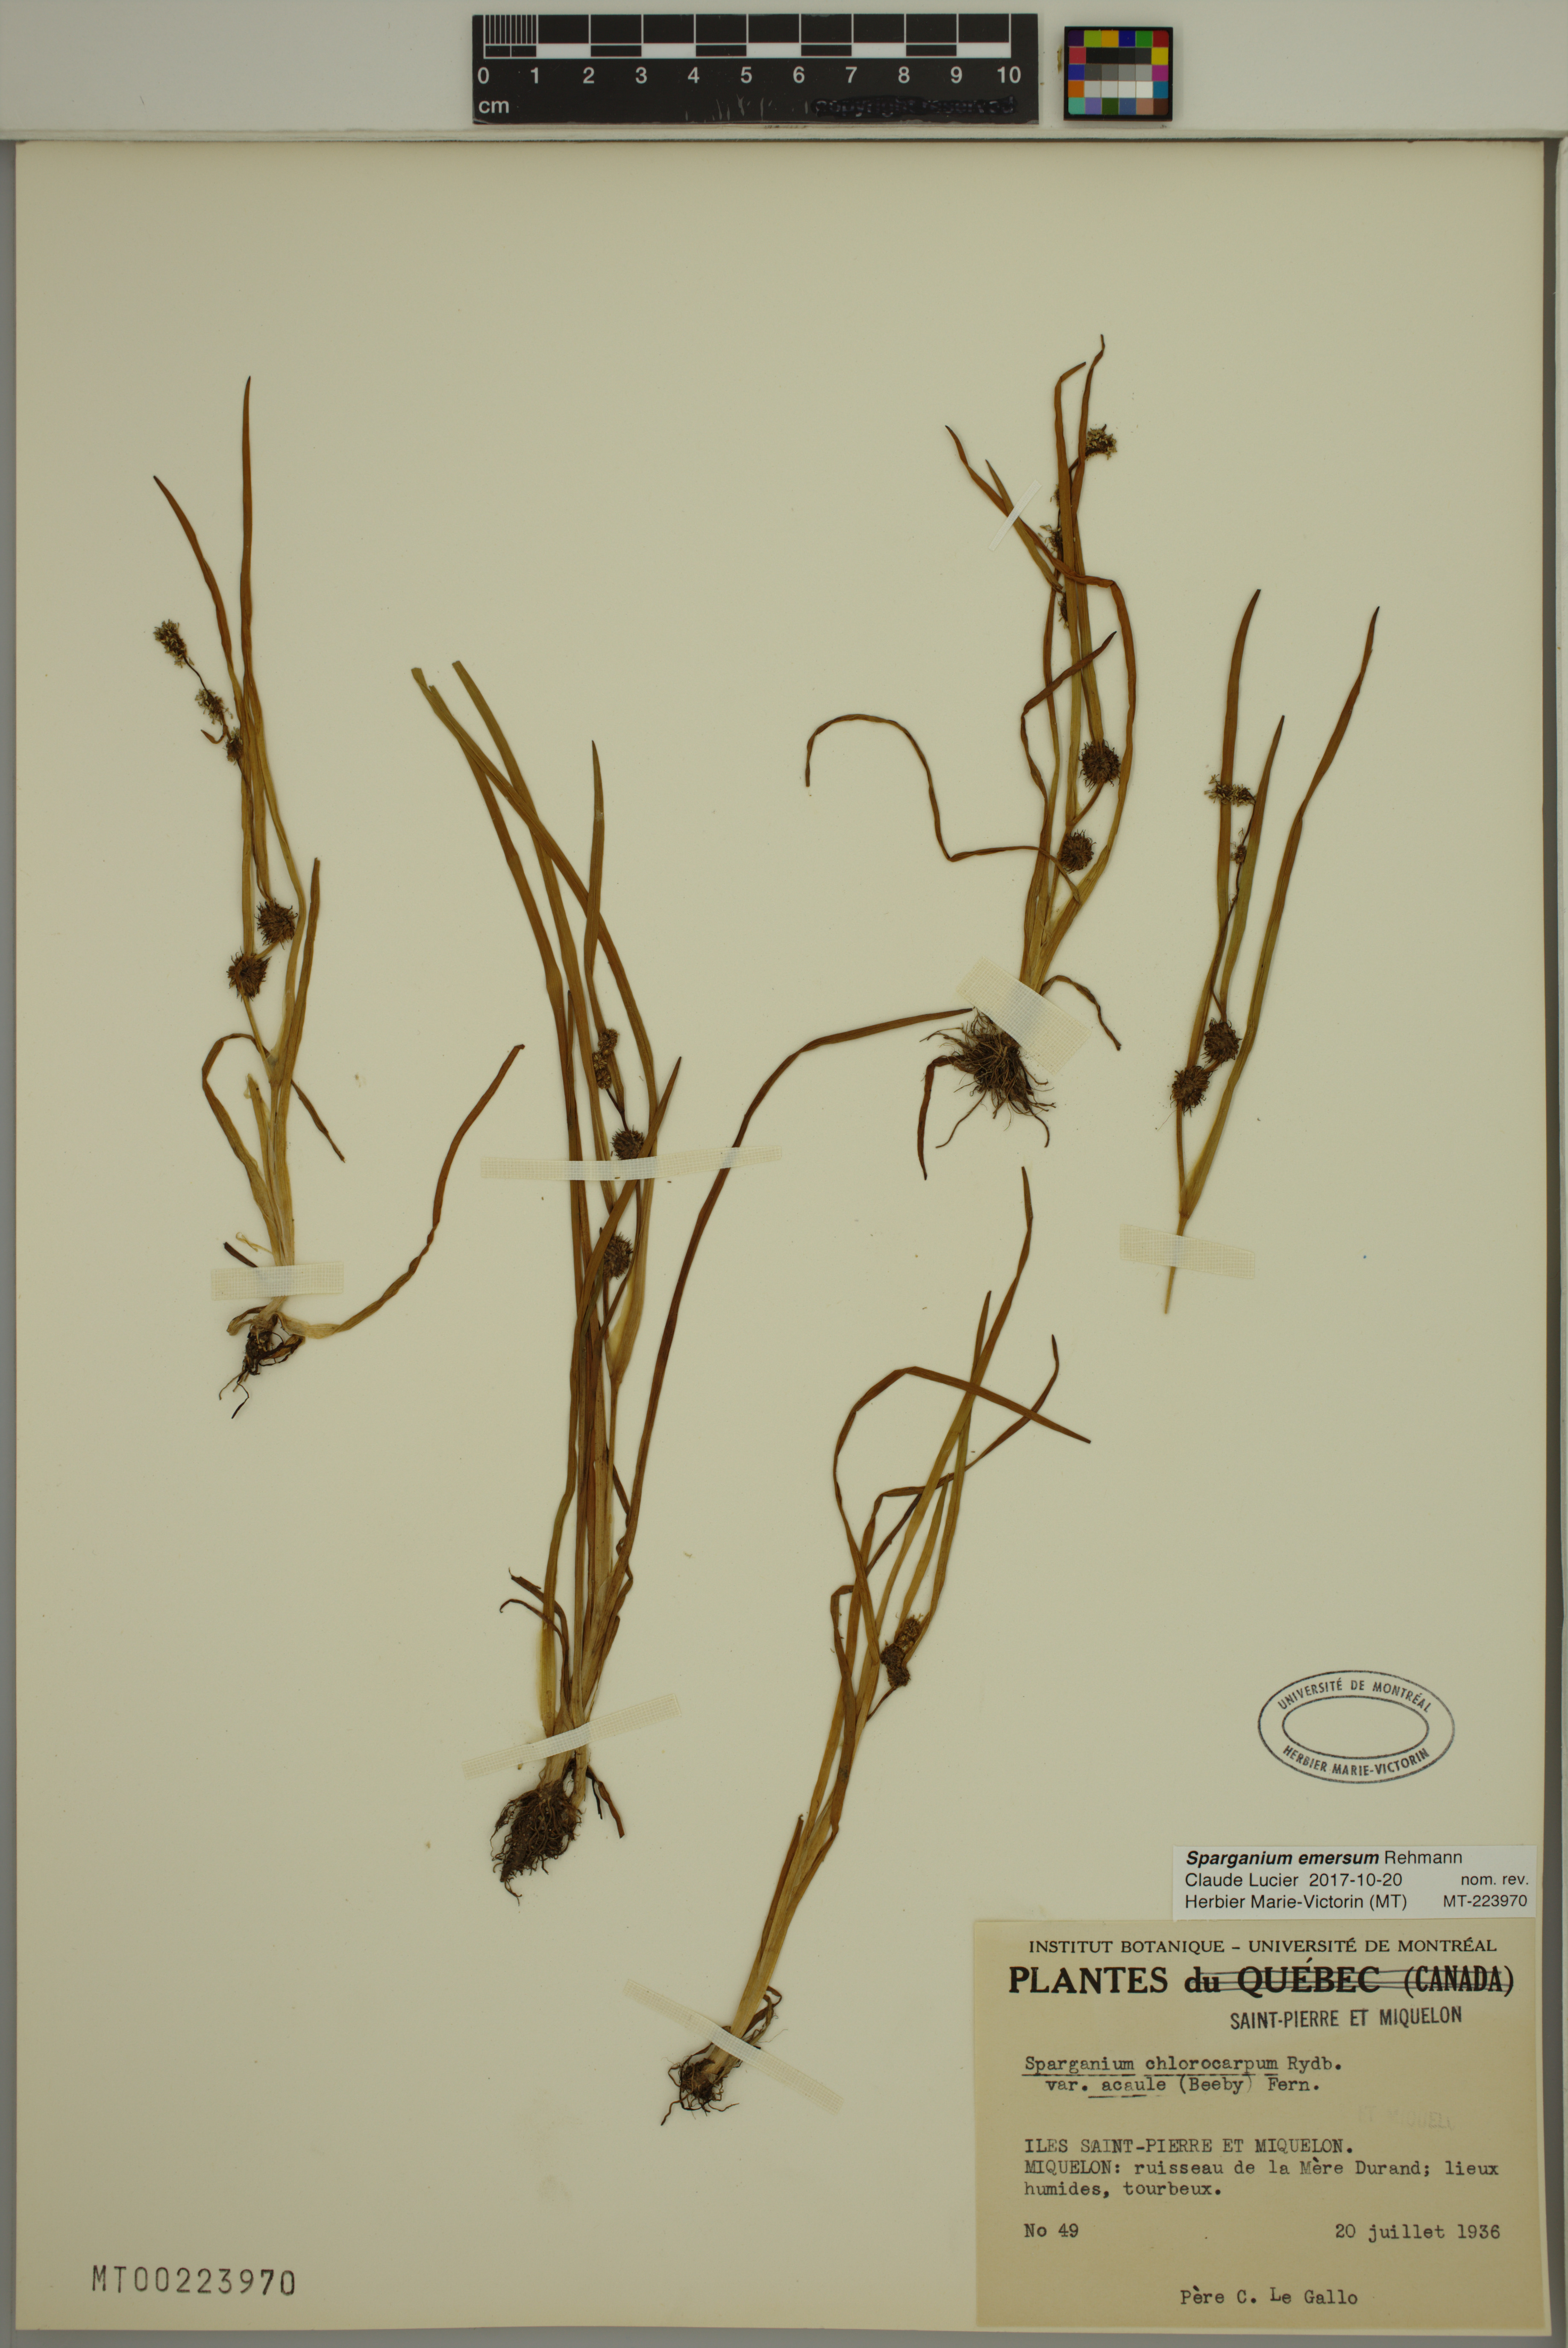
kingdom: Plantae
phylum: Tracheophyta
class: Liliopsida
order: Poales
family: Typhaceae
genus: Sparganium
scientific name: Sparganium emersum
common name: Unbranched bur-reed
